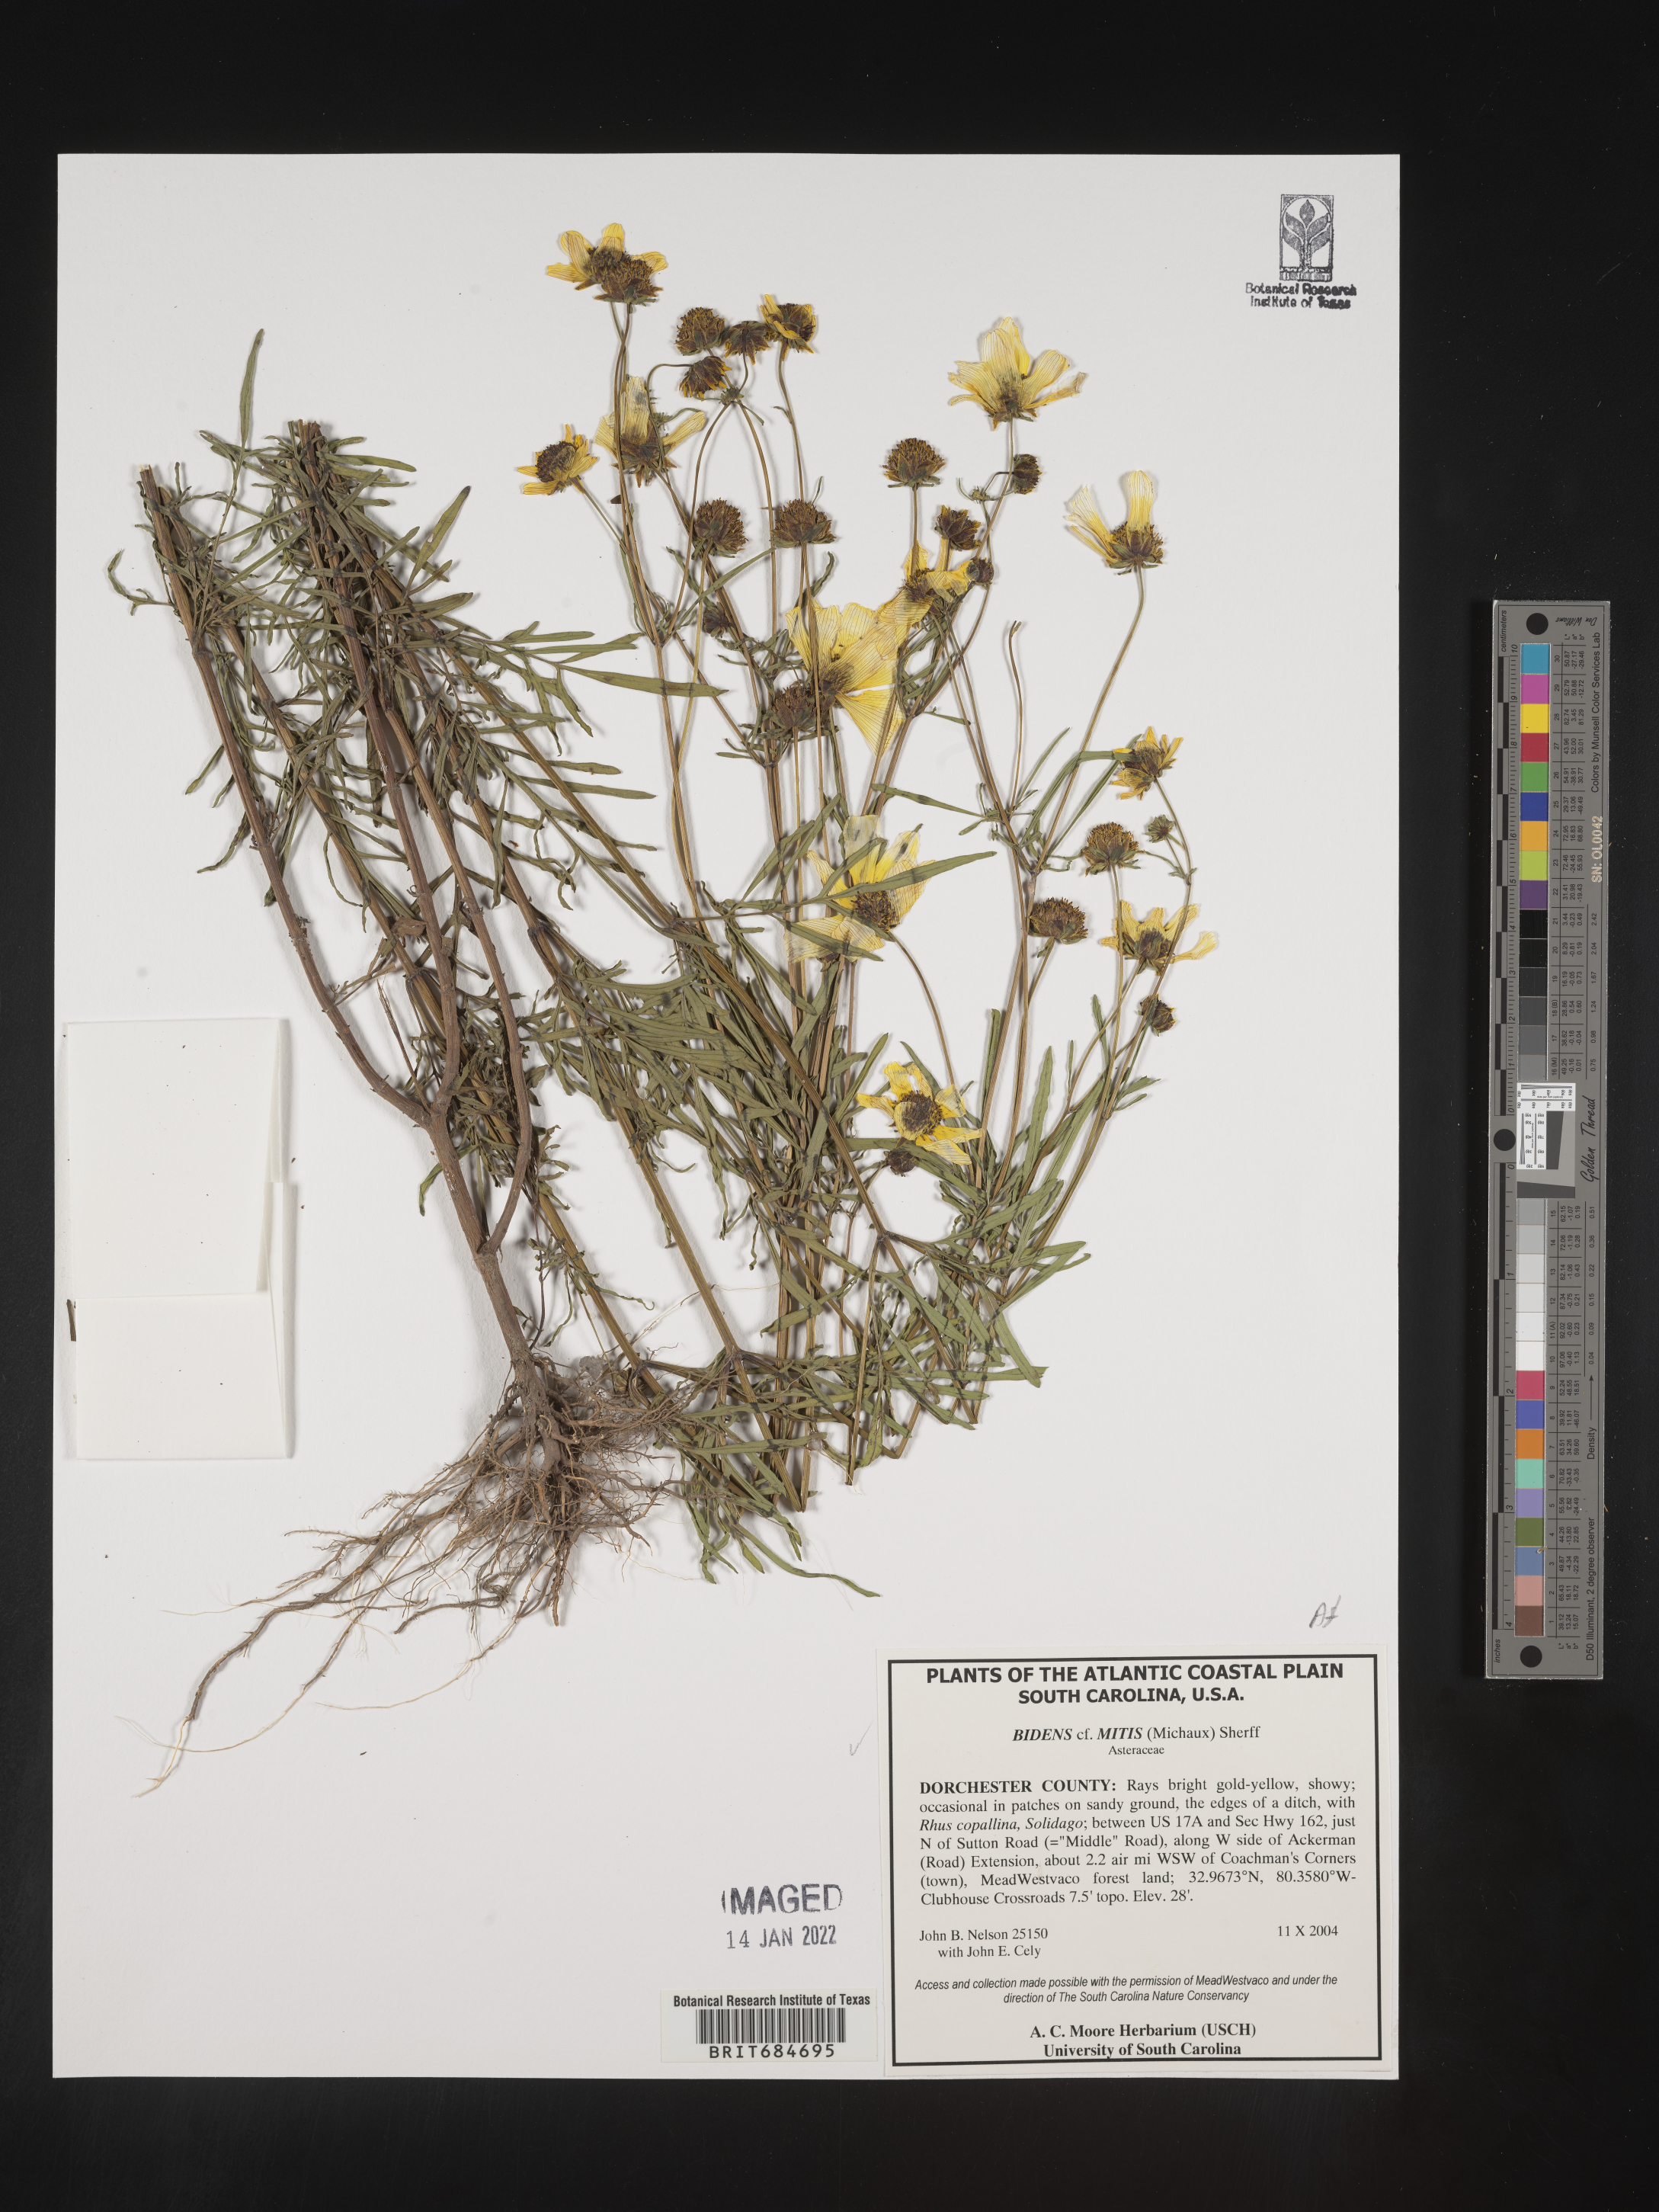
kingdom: Plantae
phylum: Tracheophyta
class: Magnoliopsida
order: Asterales
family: Asteraceae
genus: Bidens
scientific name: Bidens mitis
